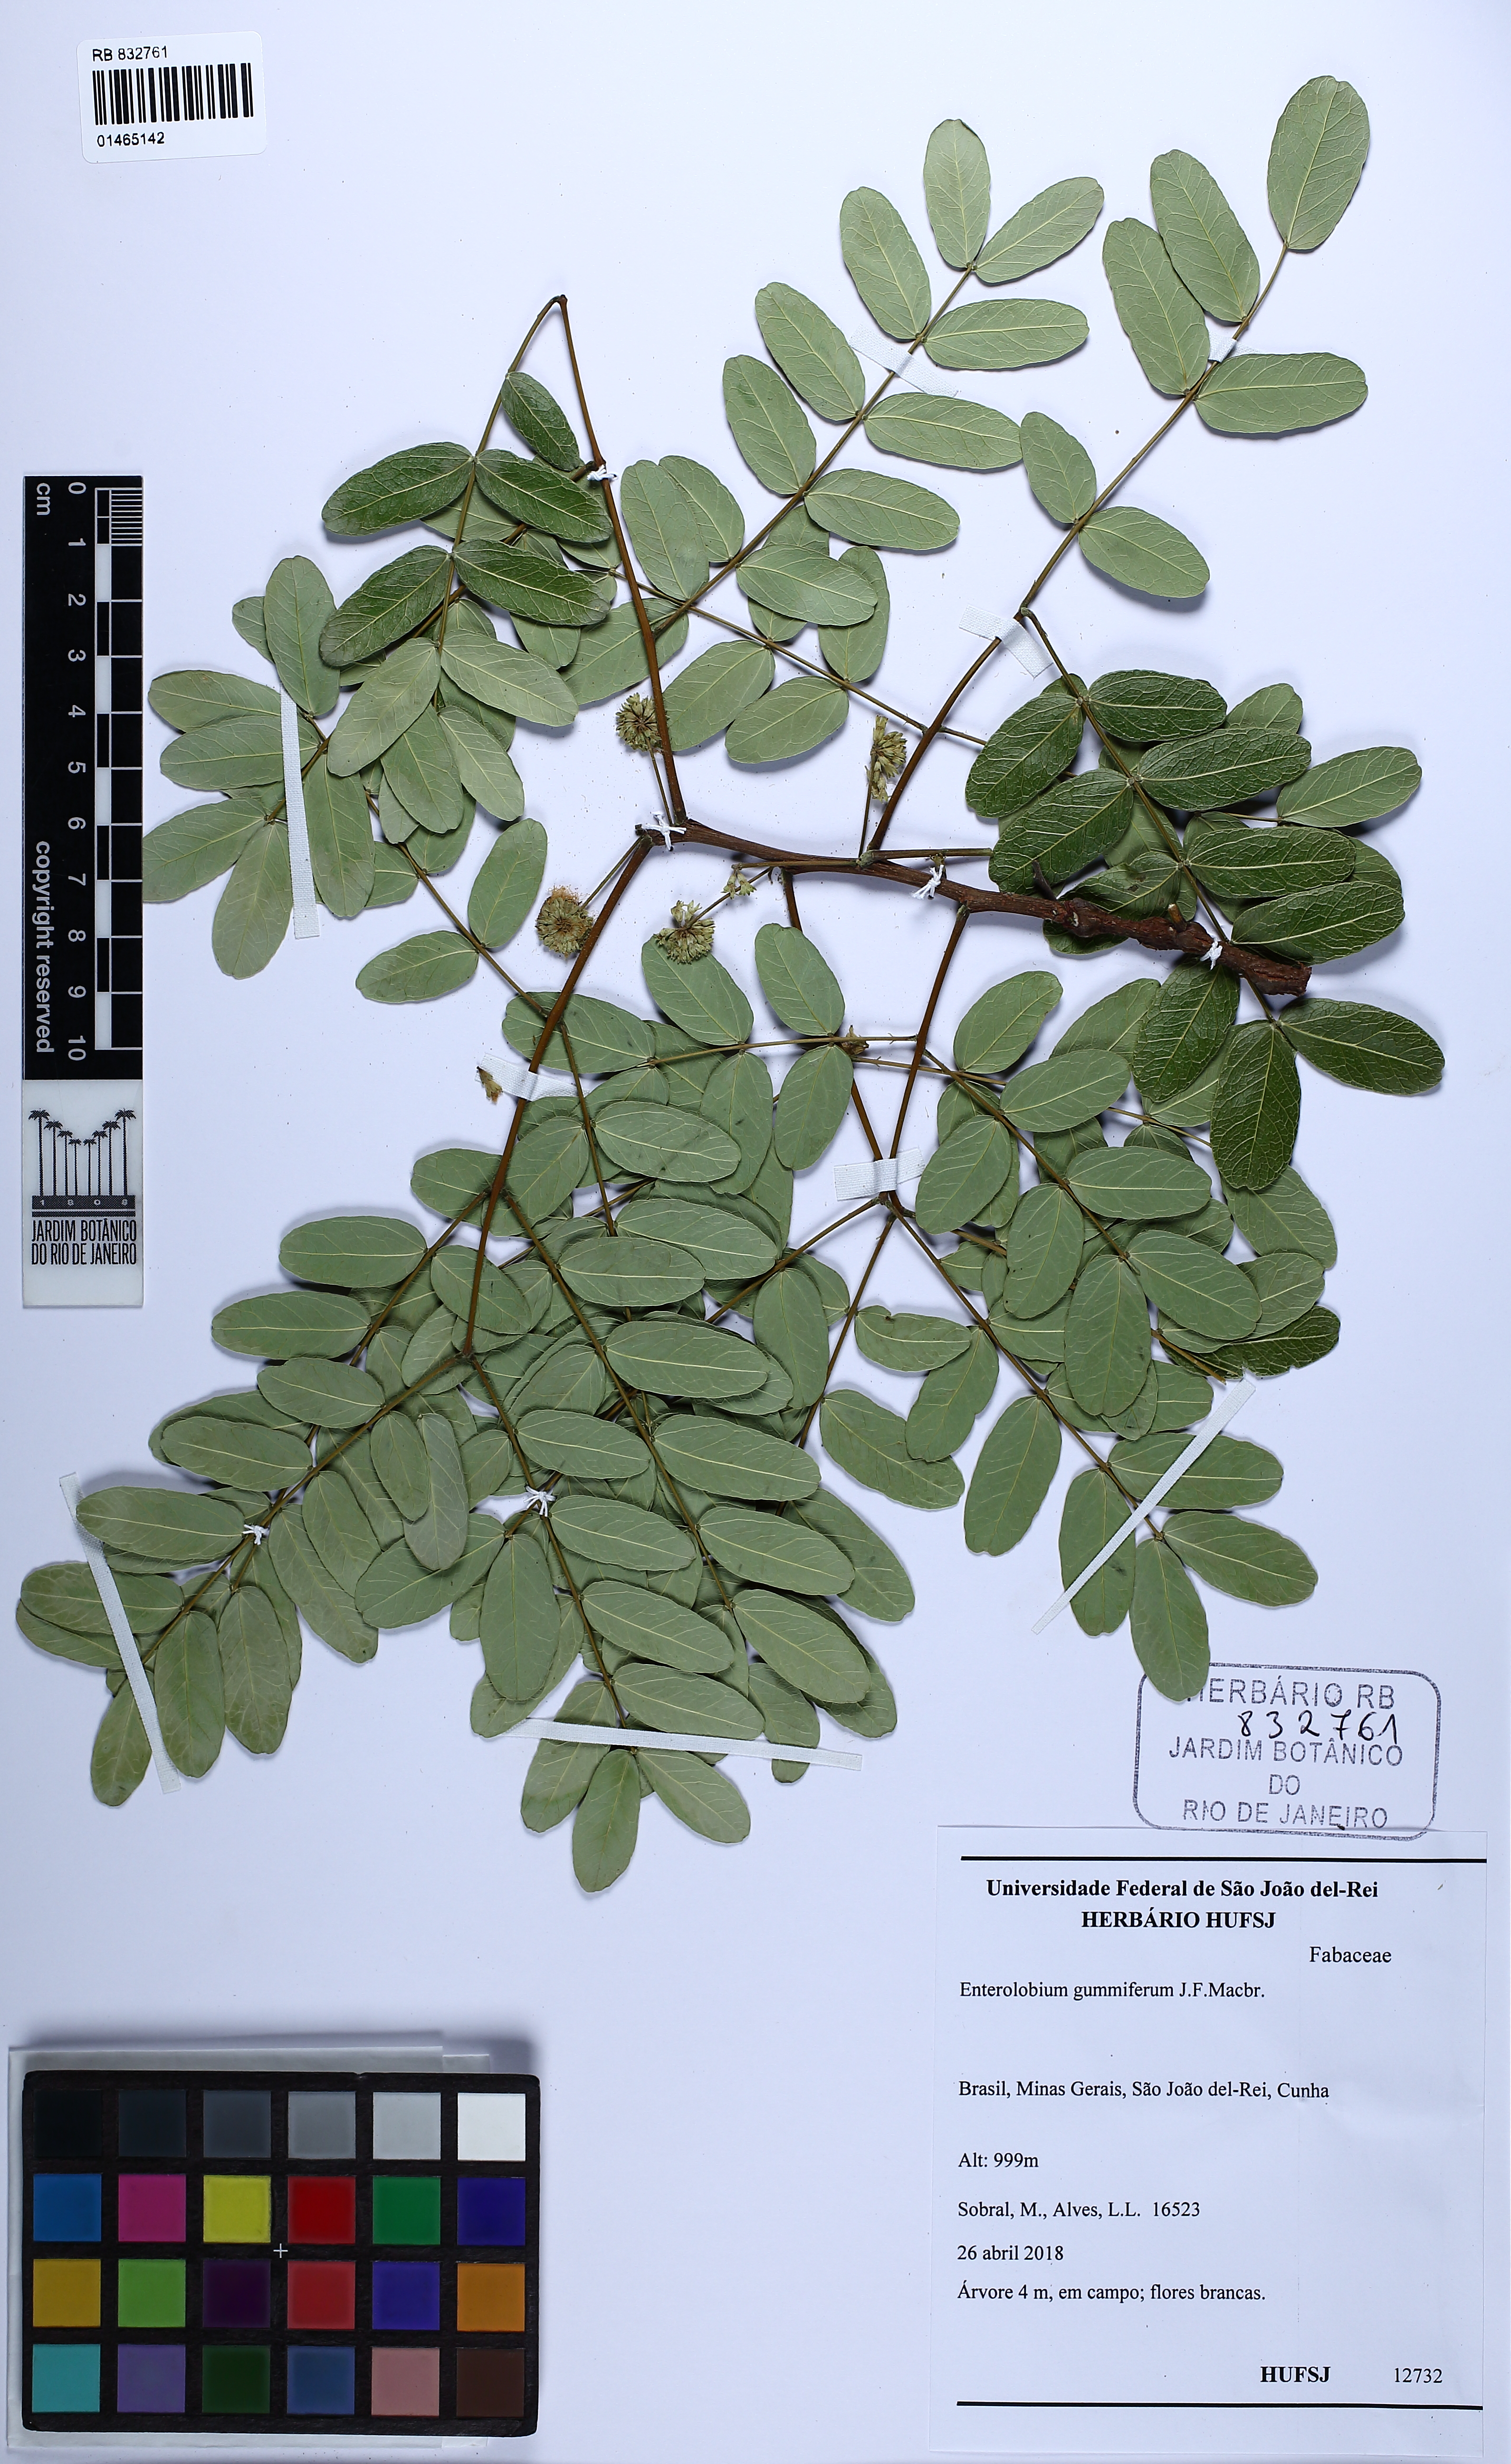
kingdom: Plantae
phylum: Tracheophyta
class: Magnoliopsida
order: Fabales
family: Fabaceae
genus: Enterolobium
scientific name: Enterolobium gummiferum
